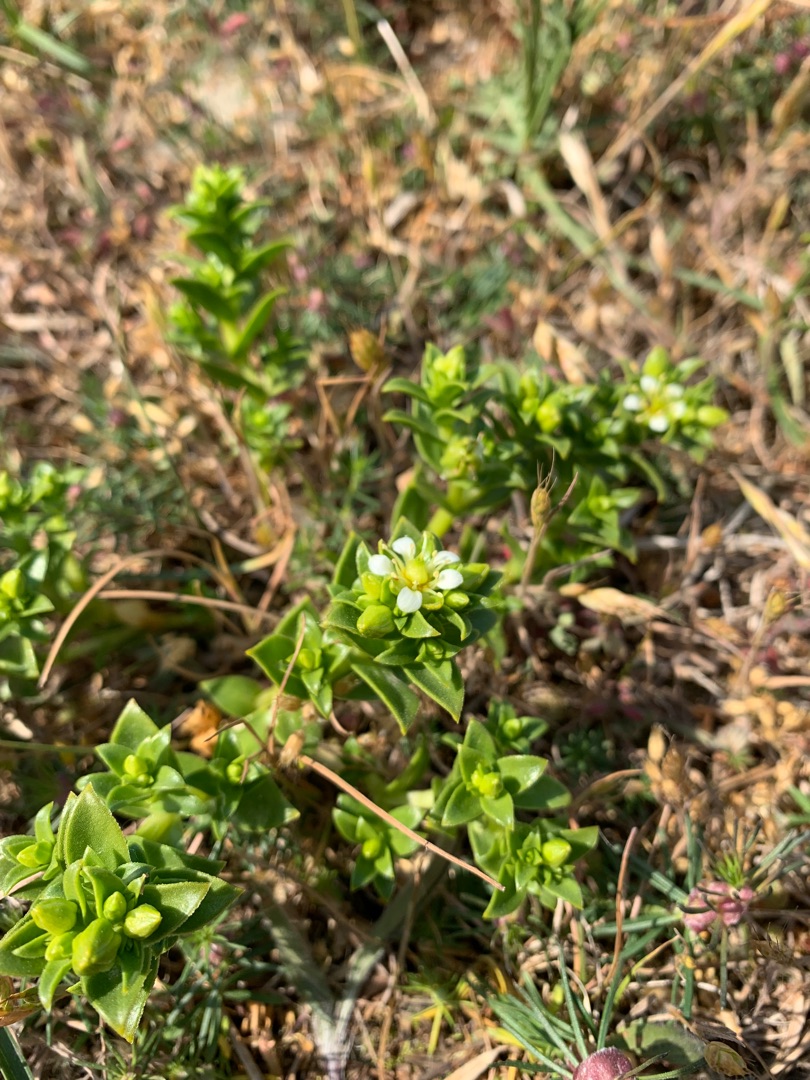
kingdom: Plantae
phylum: Tracheophyta
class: Magnoliopsida
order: Caryophyllales
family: Caryophyllaceae
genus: Honckenya
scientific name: Honckenya peploides
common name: Strandarve
